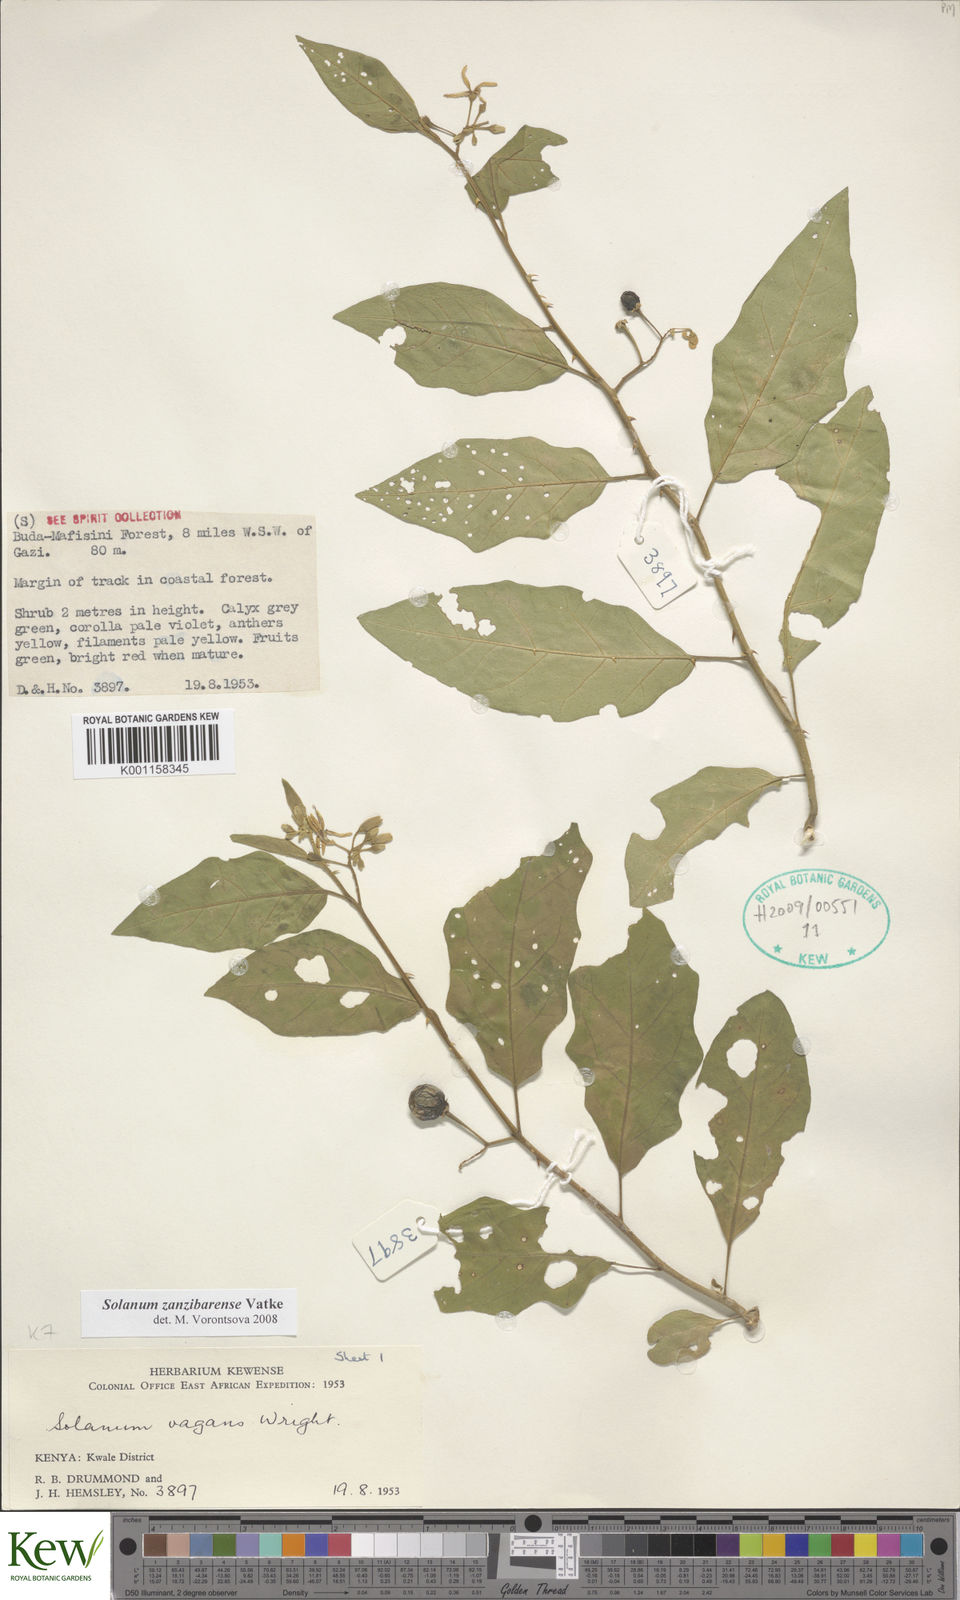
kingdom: Plantae
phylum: Tracheophyta
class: Magnoliopsida
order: Solanales
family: Solanaceae
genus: Solanum
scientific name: Solanum zanzibarense
